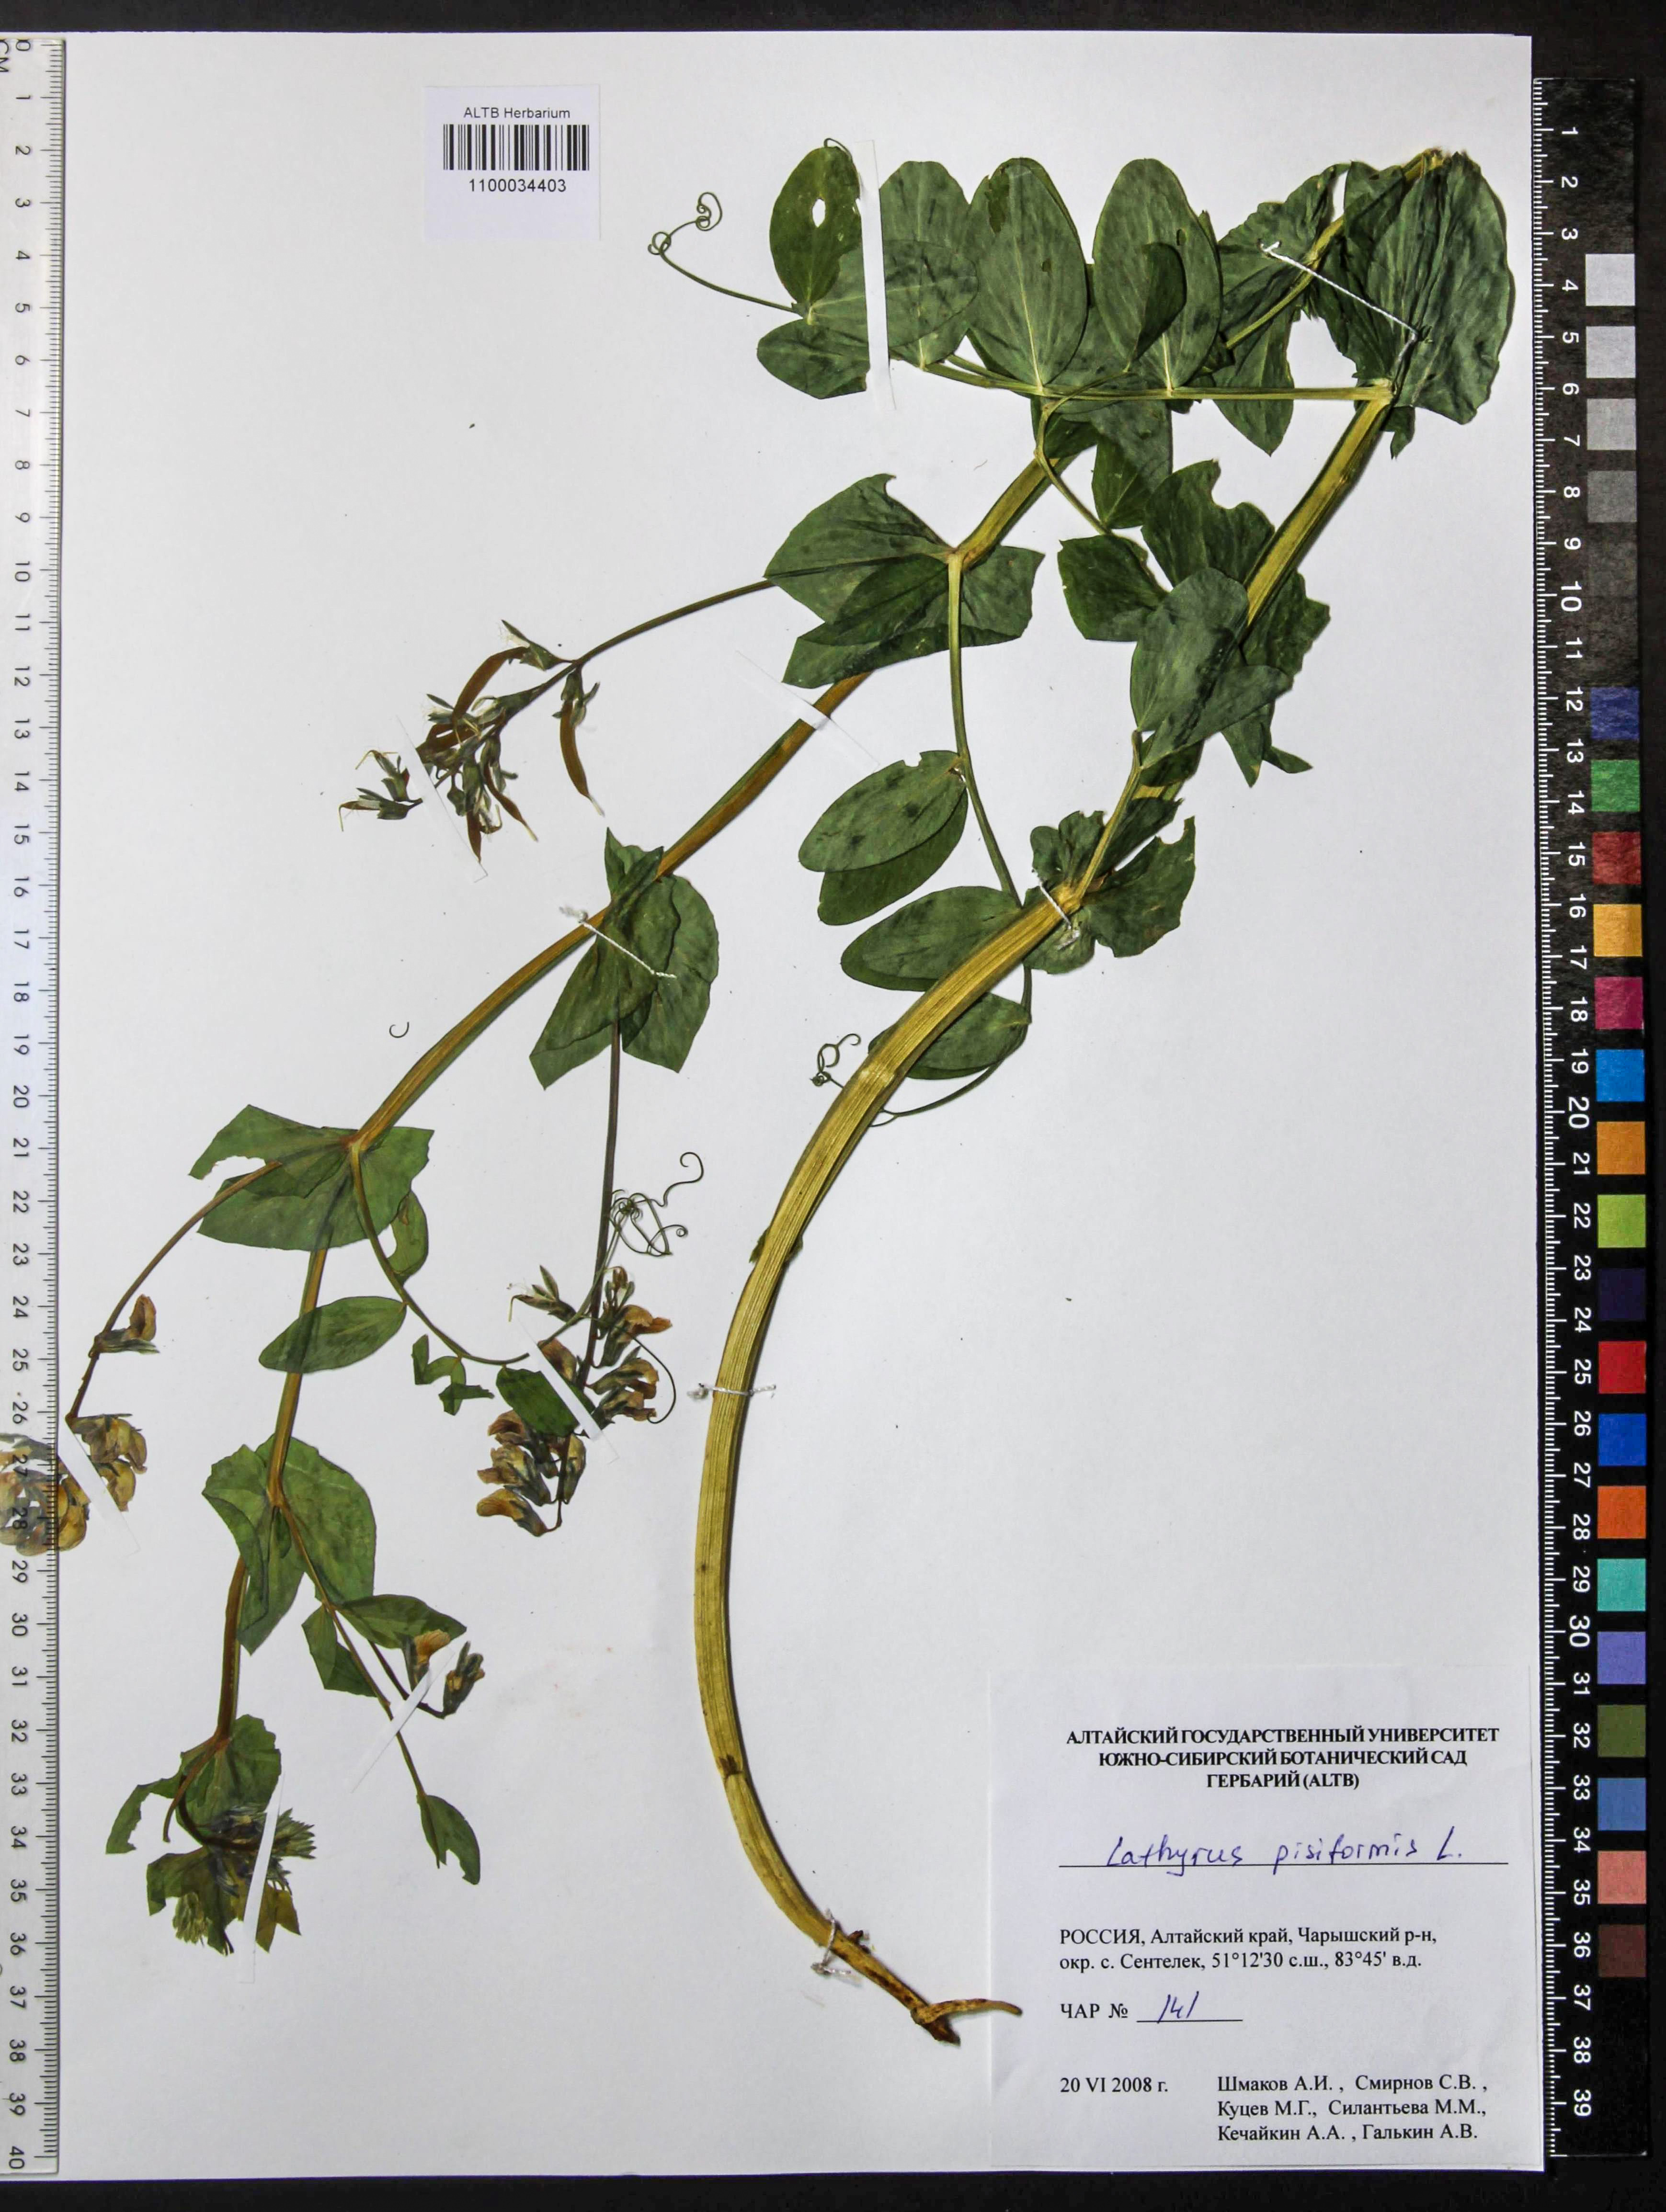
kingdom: Plantae
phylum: Tracheophyta
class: Magnoliopsida
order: Fabales
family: Fabaceae
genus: Lathyrus
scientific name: Lathyrus pisiformis
